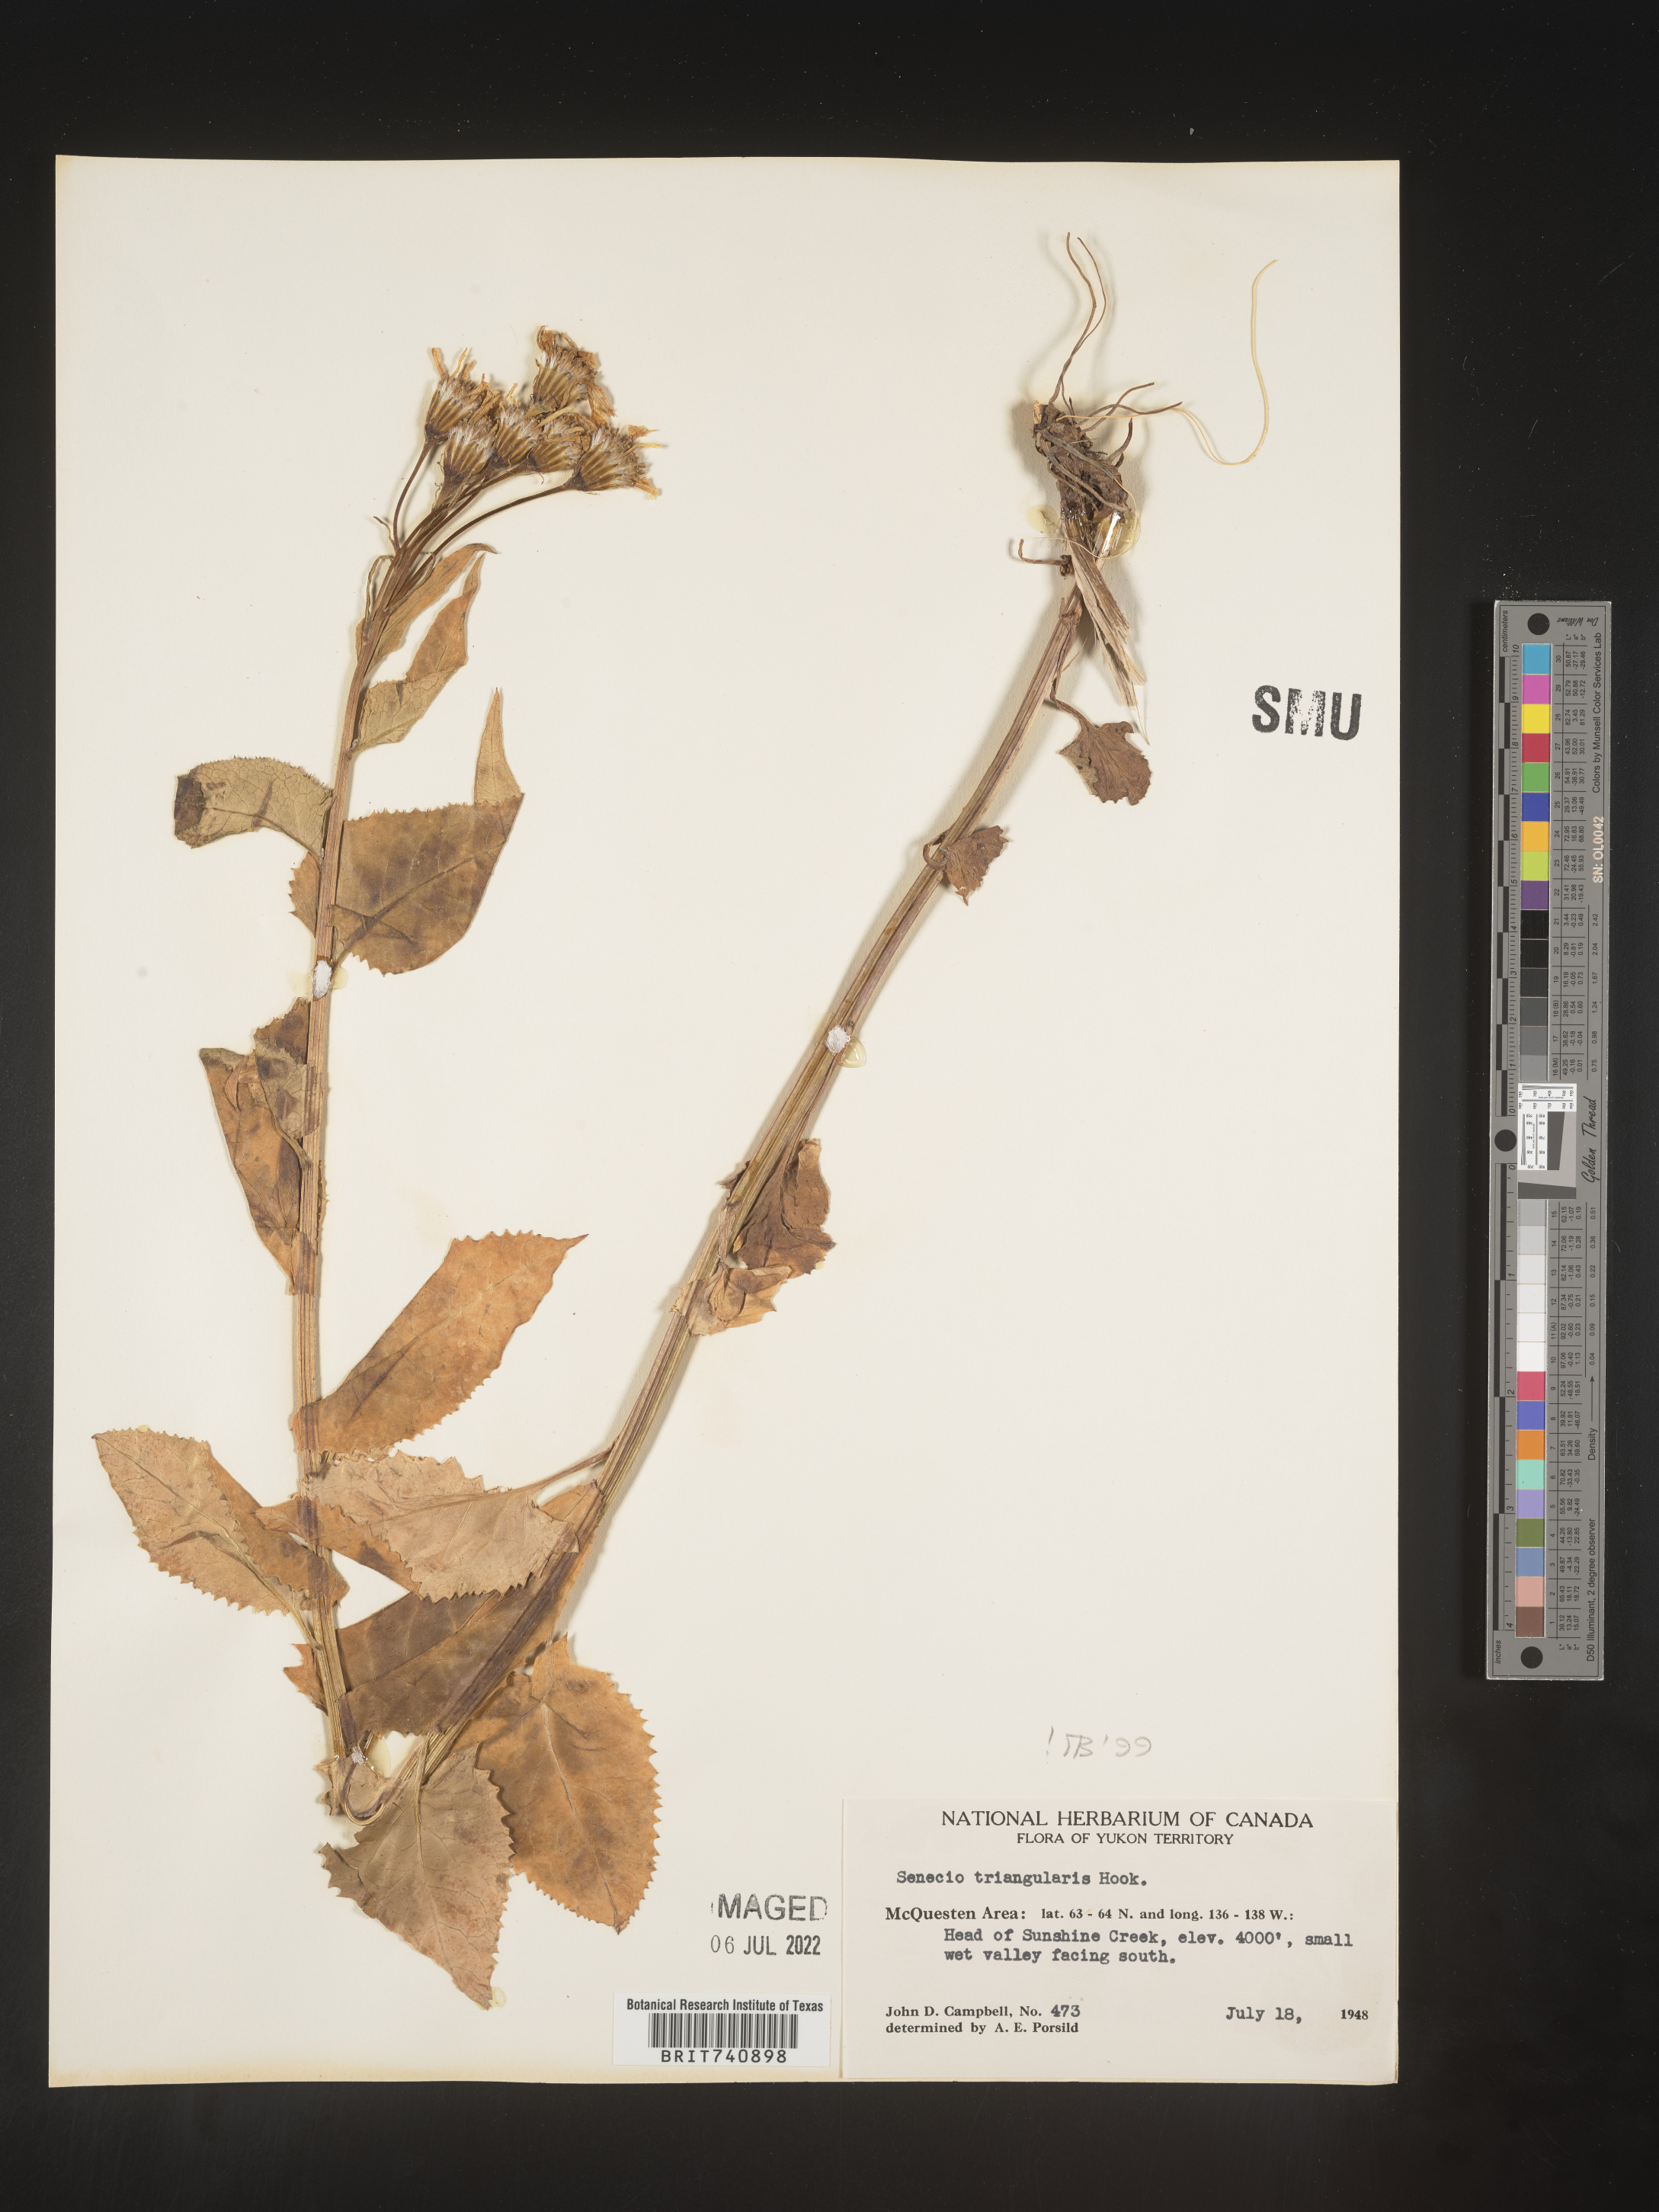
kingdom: Plantae
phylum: Tracheophyta
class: Magnoliopsida
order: Asterales
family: Asteraceae
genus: Senecio
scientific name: Senecio triangularis
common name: Arrowleaf butterweed
